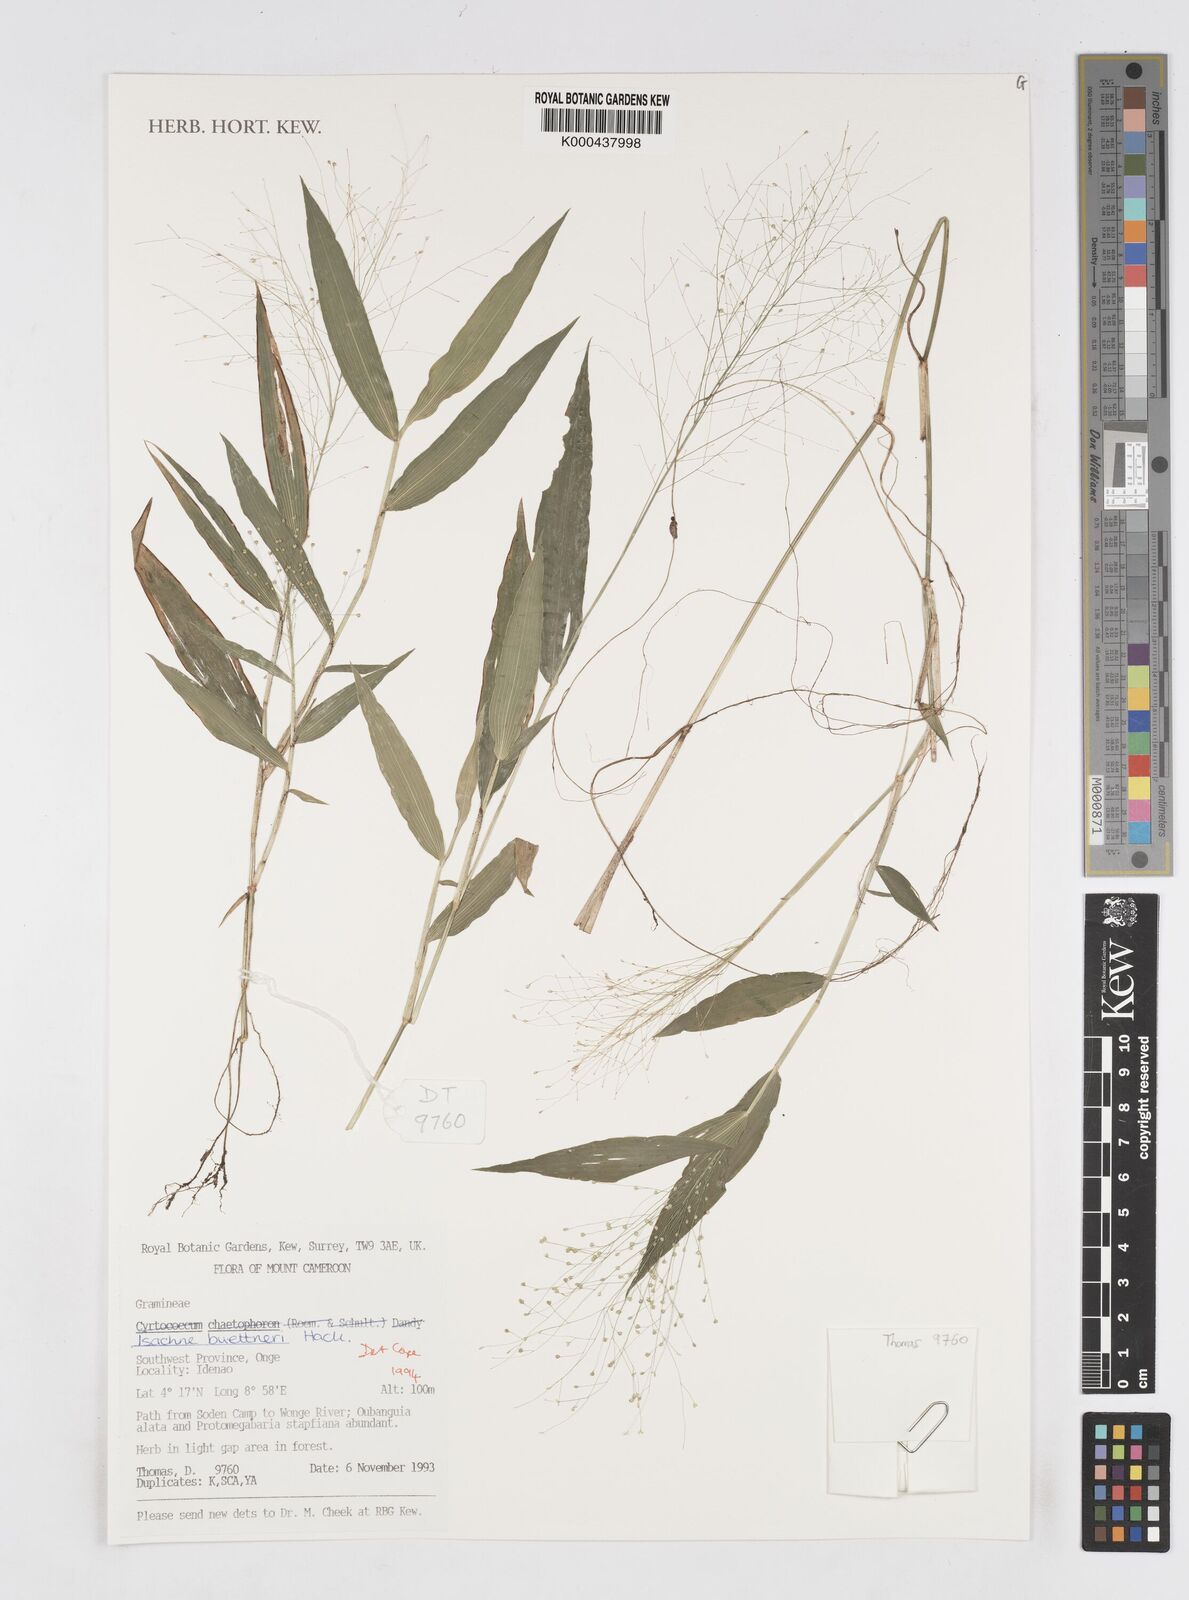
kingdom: Plantae
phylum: Tracheophyta
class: Liliopsida
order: Poales
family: Poaceae
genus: Isachne
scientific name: Isachne albens
